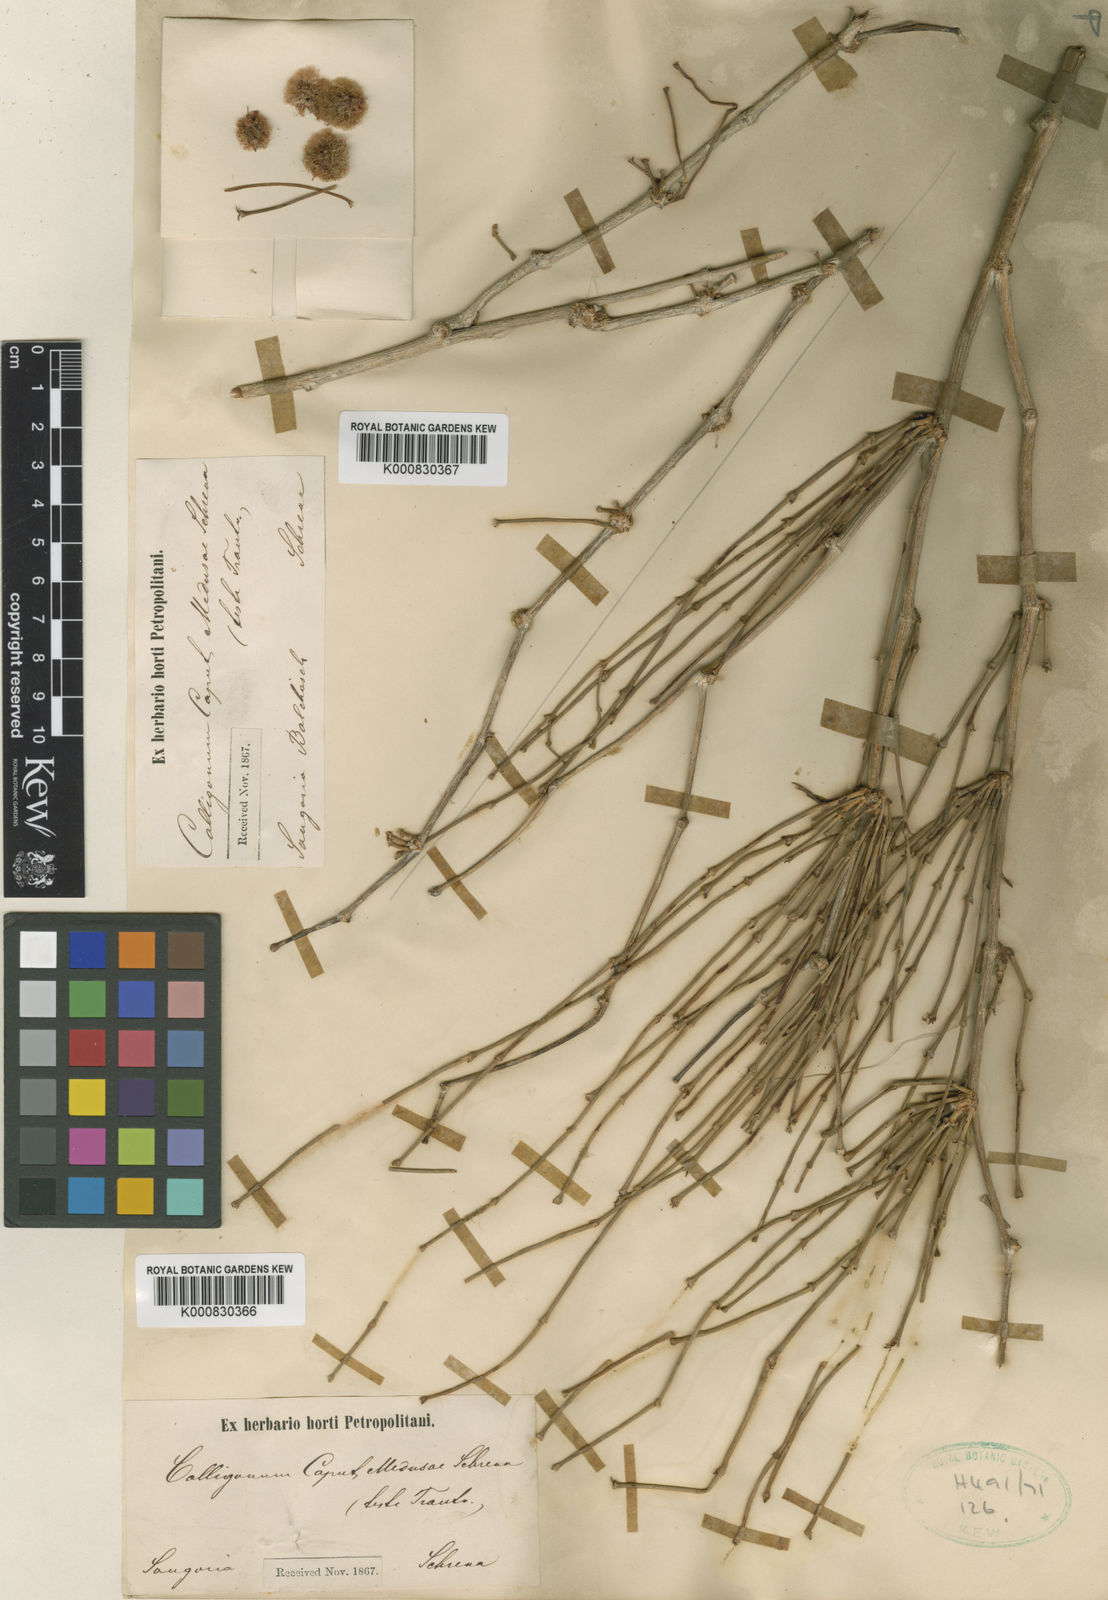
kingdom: Plantae
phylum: Tracheophyta
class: Magnoliopsida
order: Caryophyllales
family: Polygonaceae
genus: Calligonum
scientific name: Calligonum
